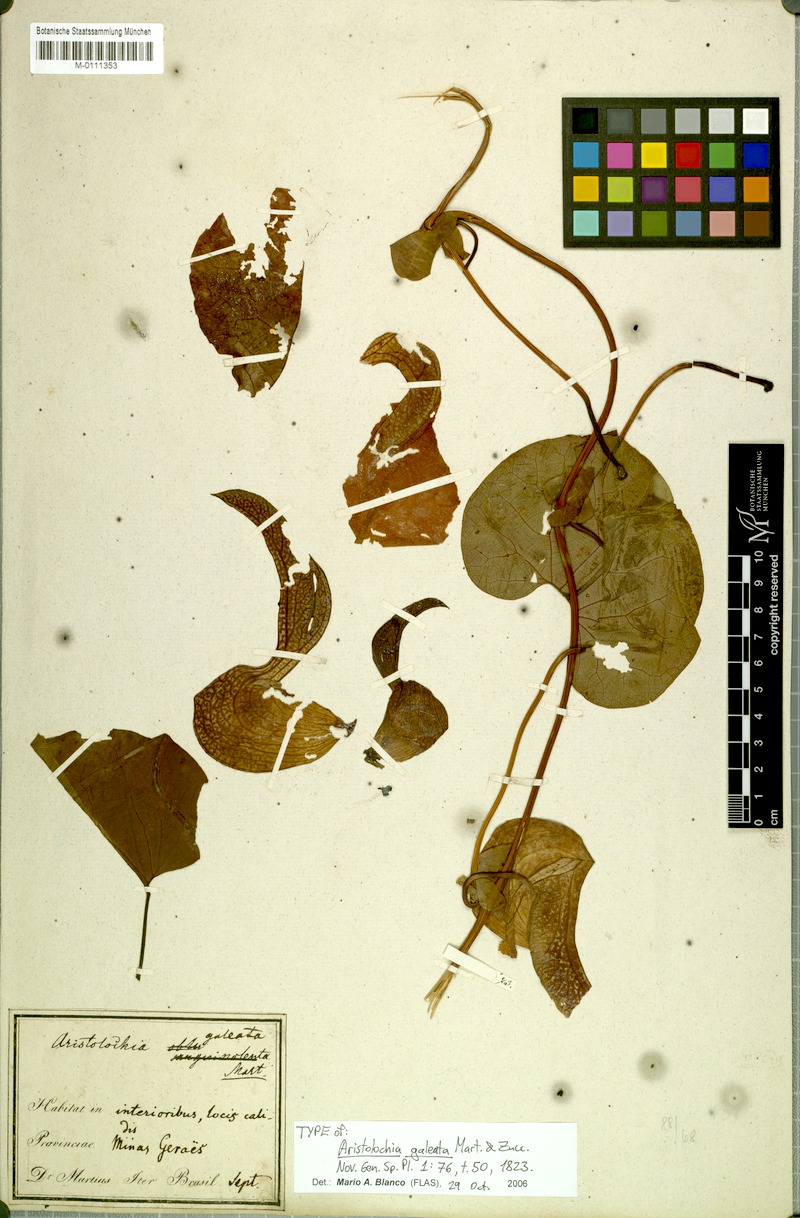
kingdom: Plantae
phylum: Tracheophyta
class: Magnoliopsida
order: Piperales
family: Aristolochiaceae
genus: Aristolochia
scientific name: Aristolochia labiata
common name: Mottled dutchman's pipe
